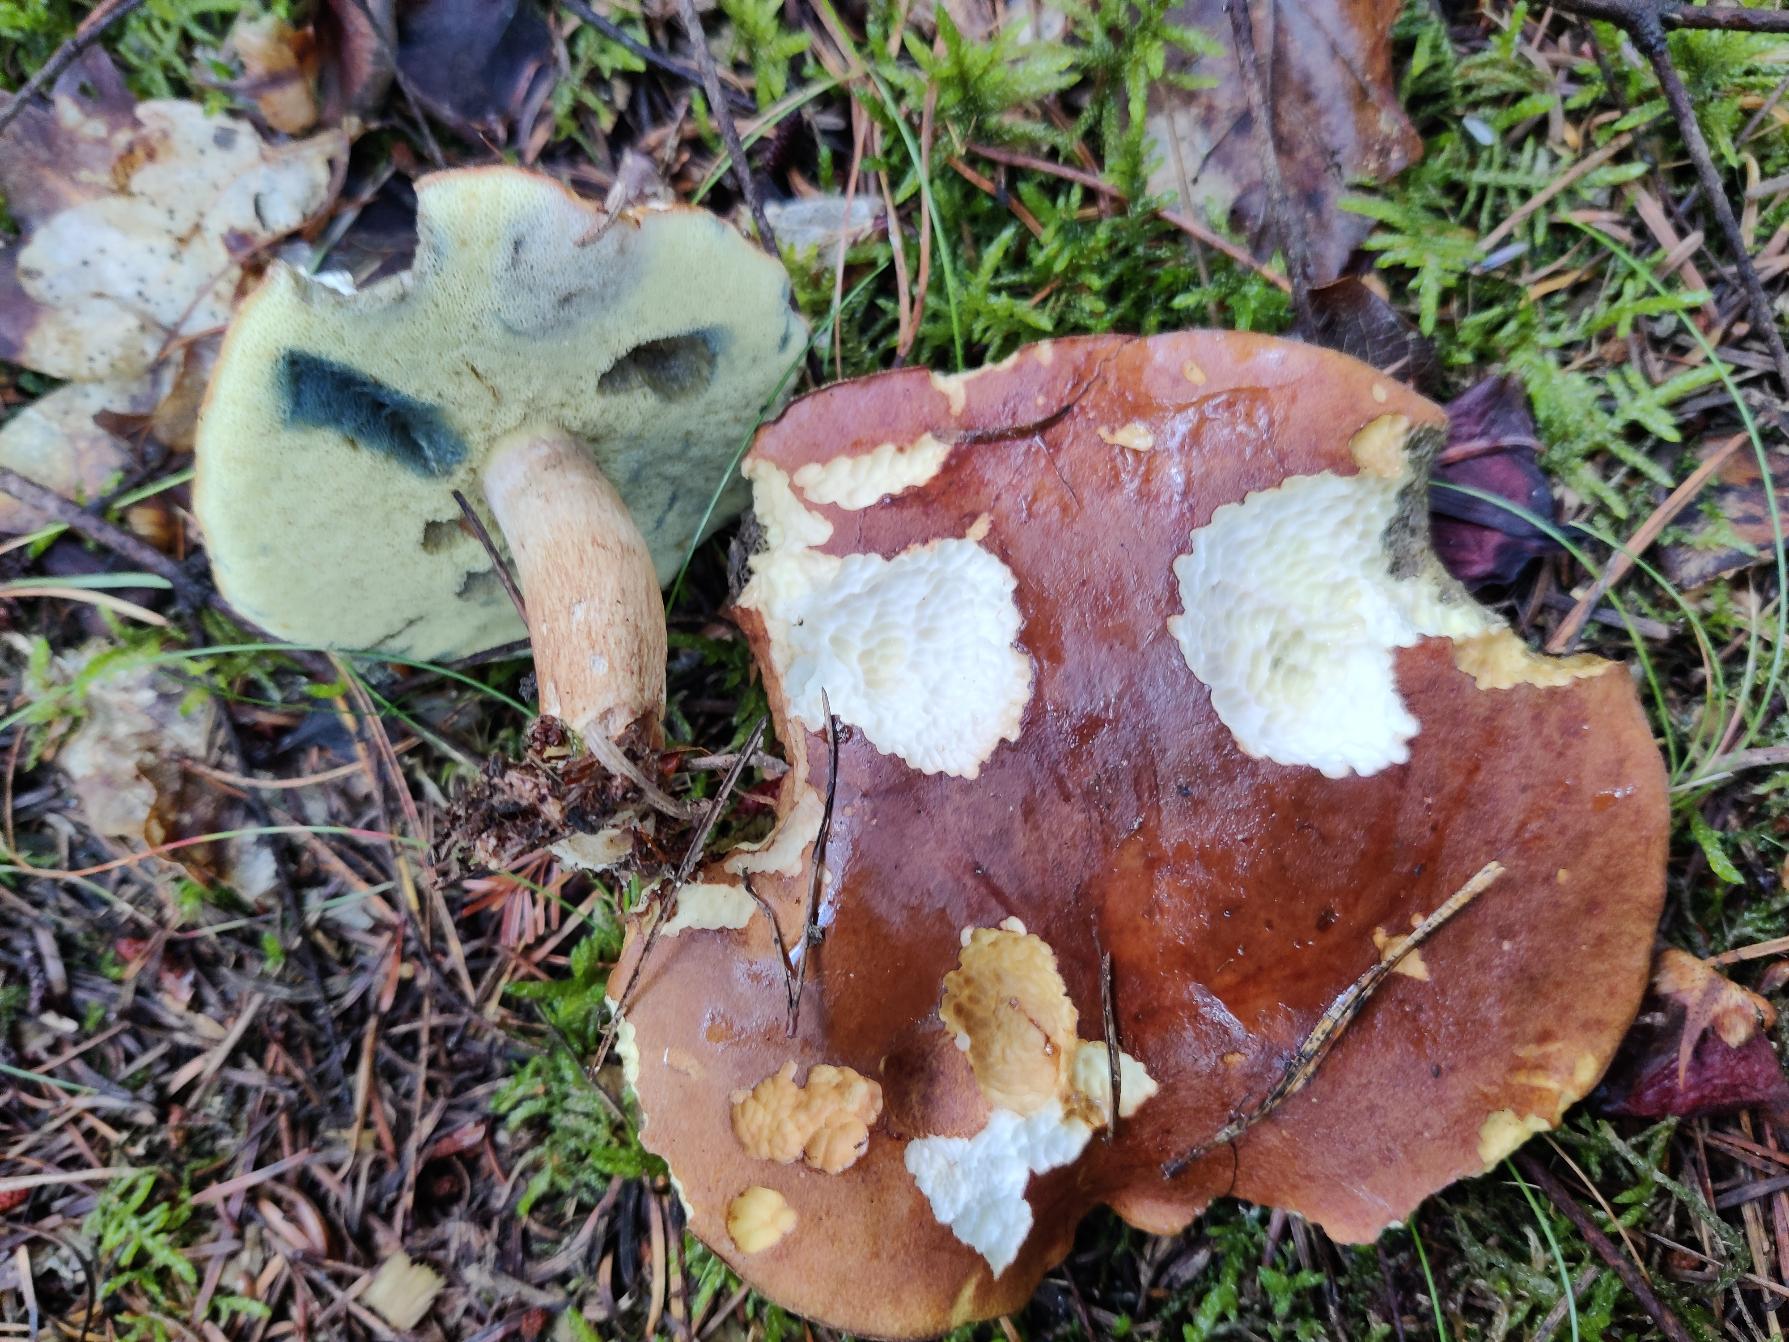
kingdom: Fungi
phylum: Basidiomycota
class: Agaricomycetes
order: Boletales
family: Boletaceae
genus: Imleria
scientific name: Imleria badia
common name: Brunstokket rørhat
